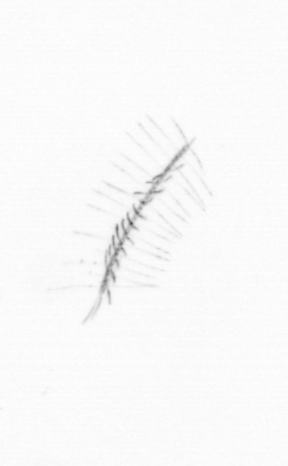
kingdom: Chromista
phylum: Ochrophyta
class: Bacillariophyceae
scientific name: Bacillariophyceae
